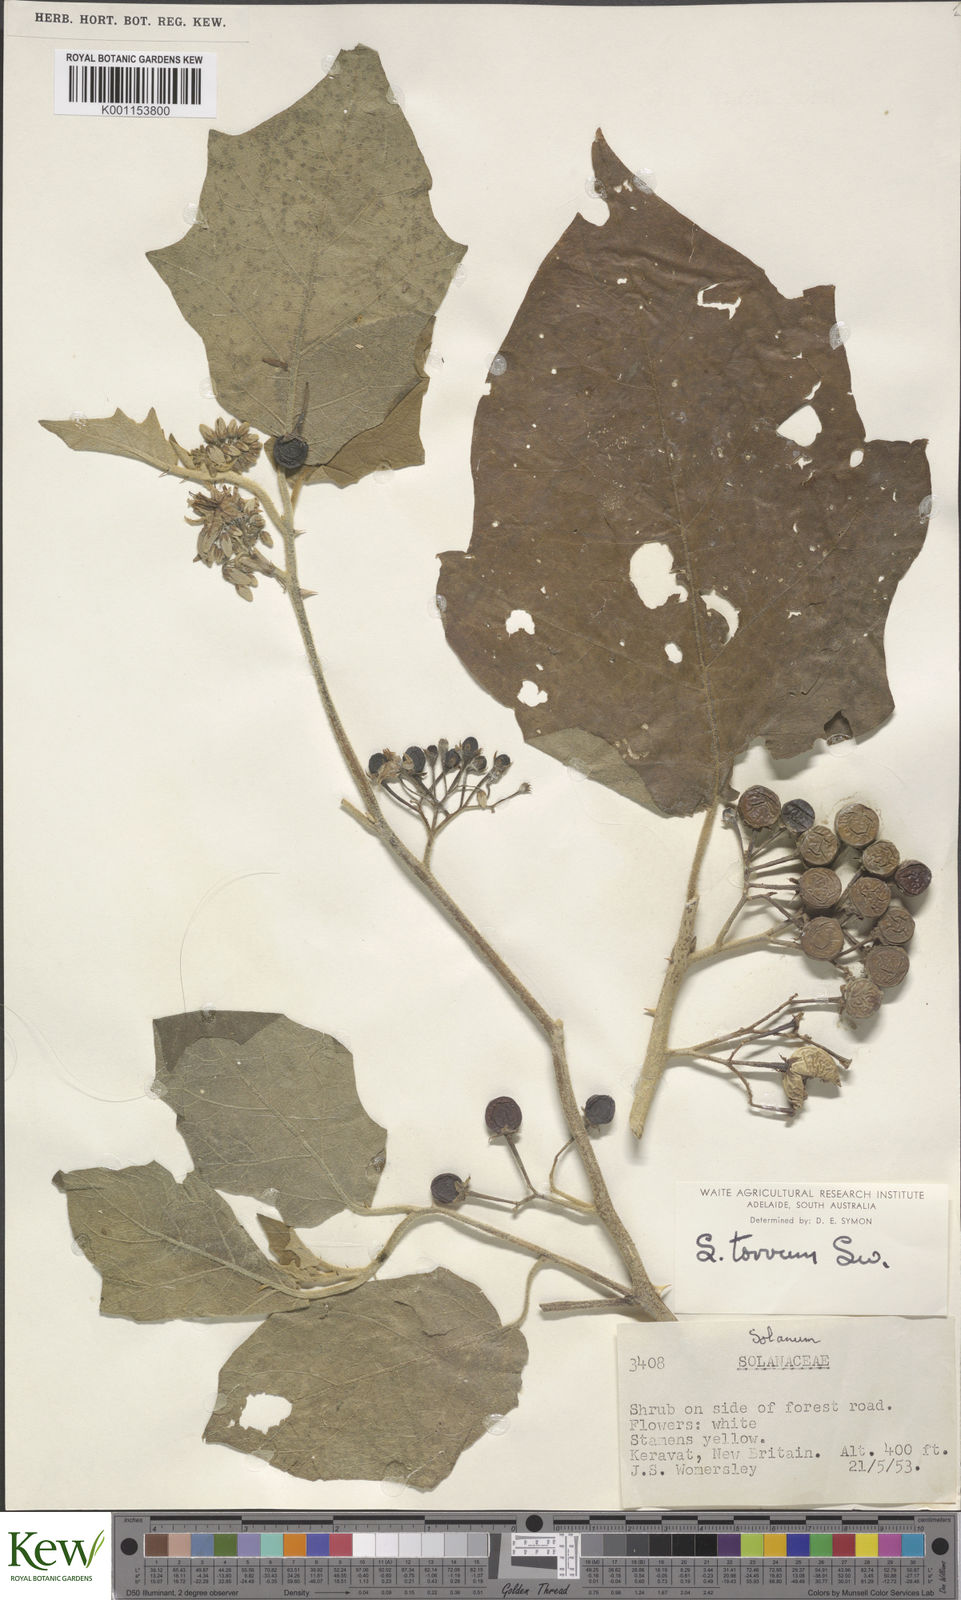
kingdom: Plantae
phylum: Tracheophyta
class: Magnoliopsida
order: Solanales
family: Solanaceae
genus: Solanum
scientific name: Solanum torvum
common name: Turkey berry
